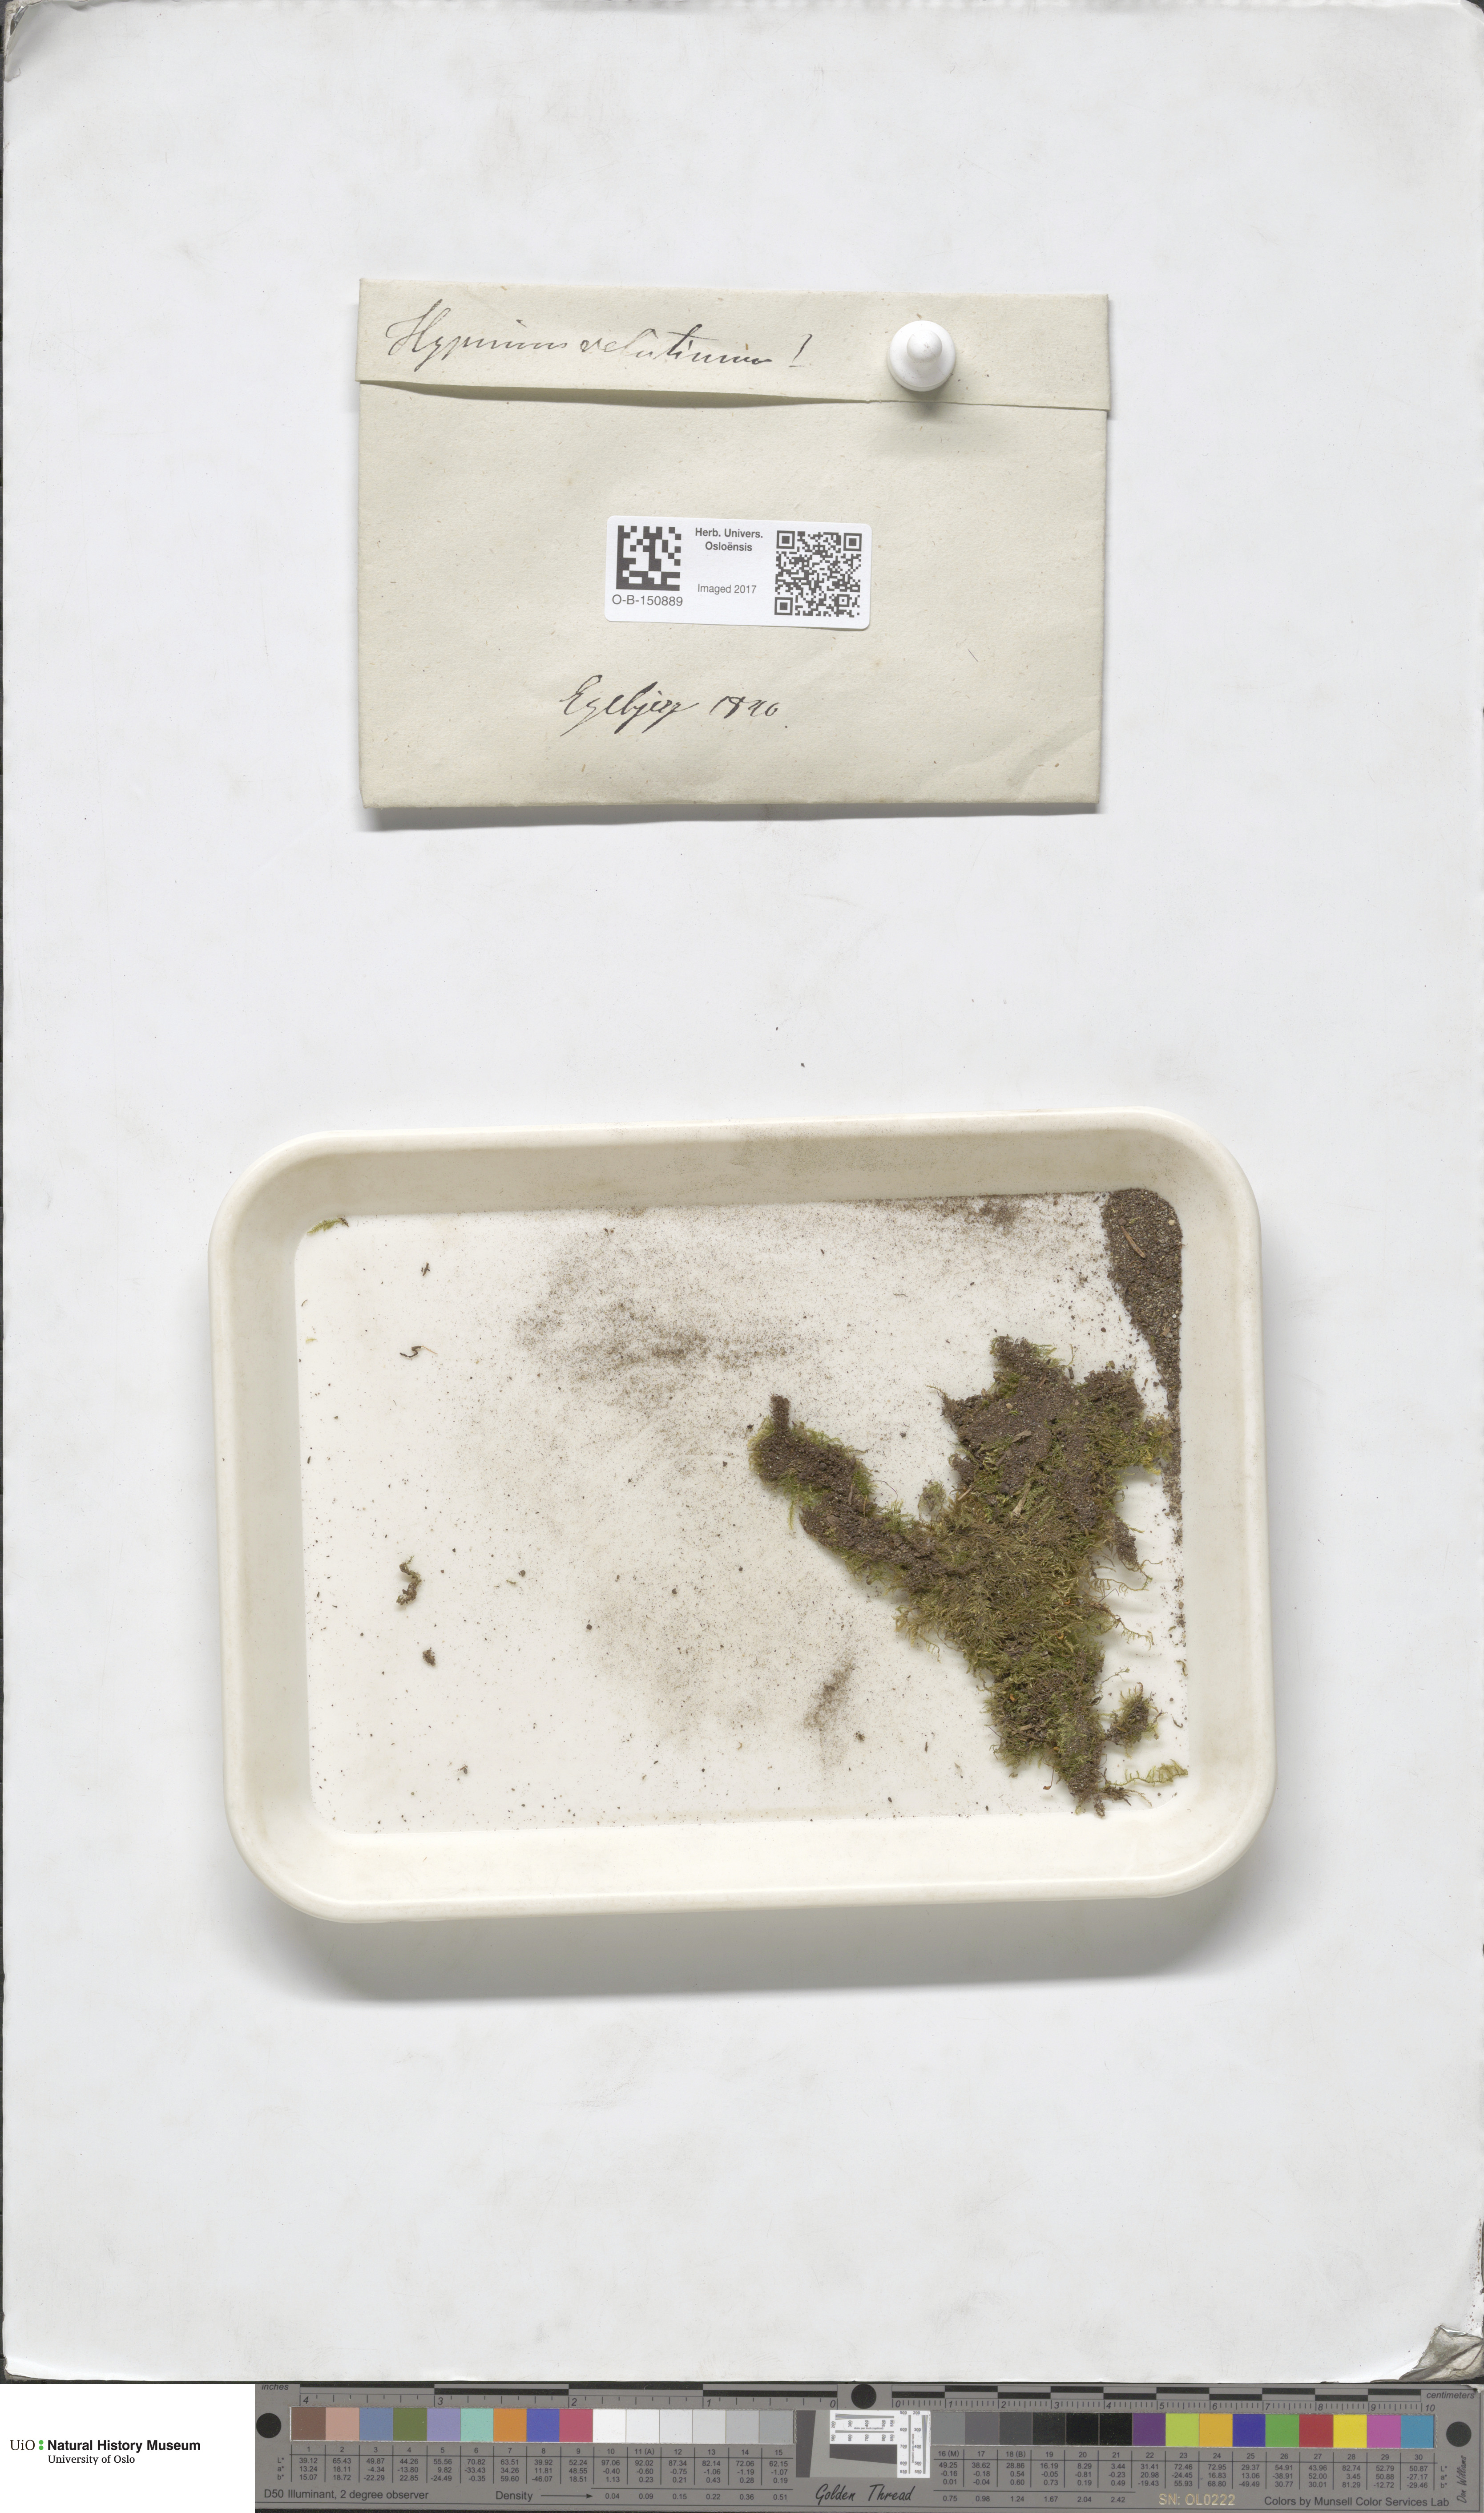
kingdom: Plantae
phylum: Bryophyta
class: Bryopsida
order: Hypnales
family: Brachytheciaceae
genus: Brachytheciastrum
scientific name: Brachytheciastrum velutinum
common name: Velvet feather-moss
